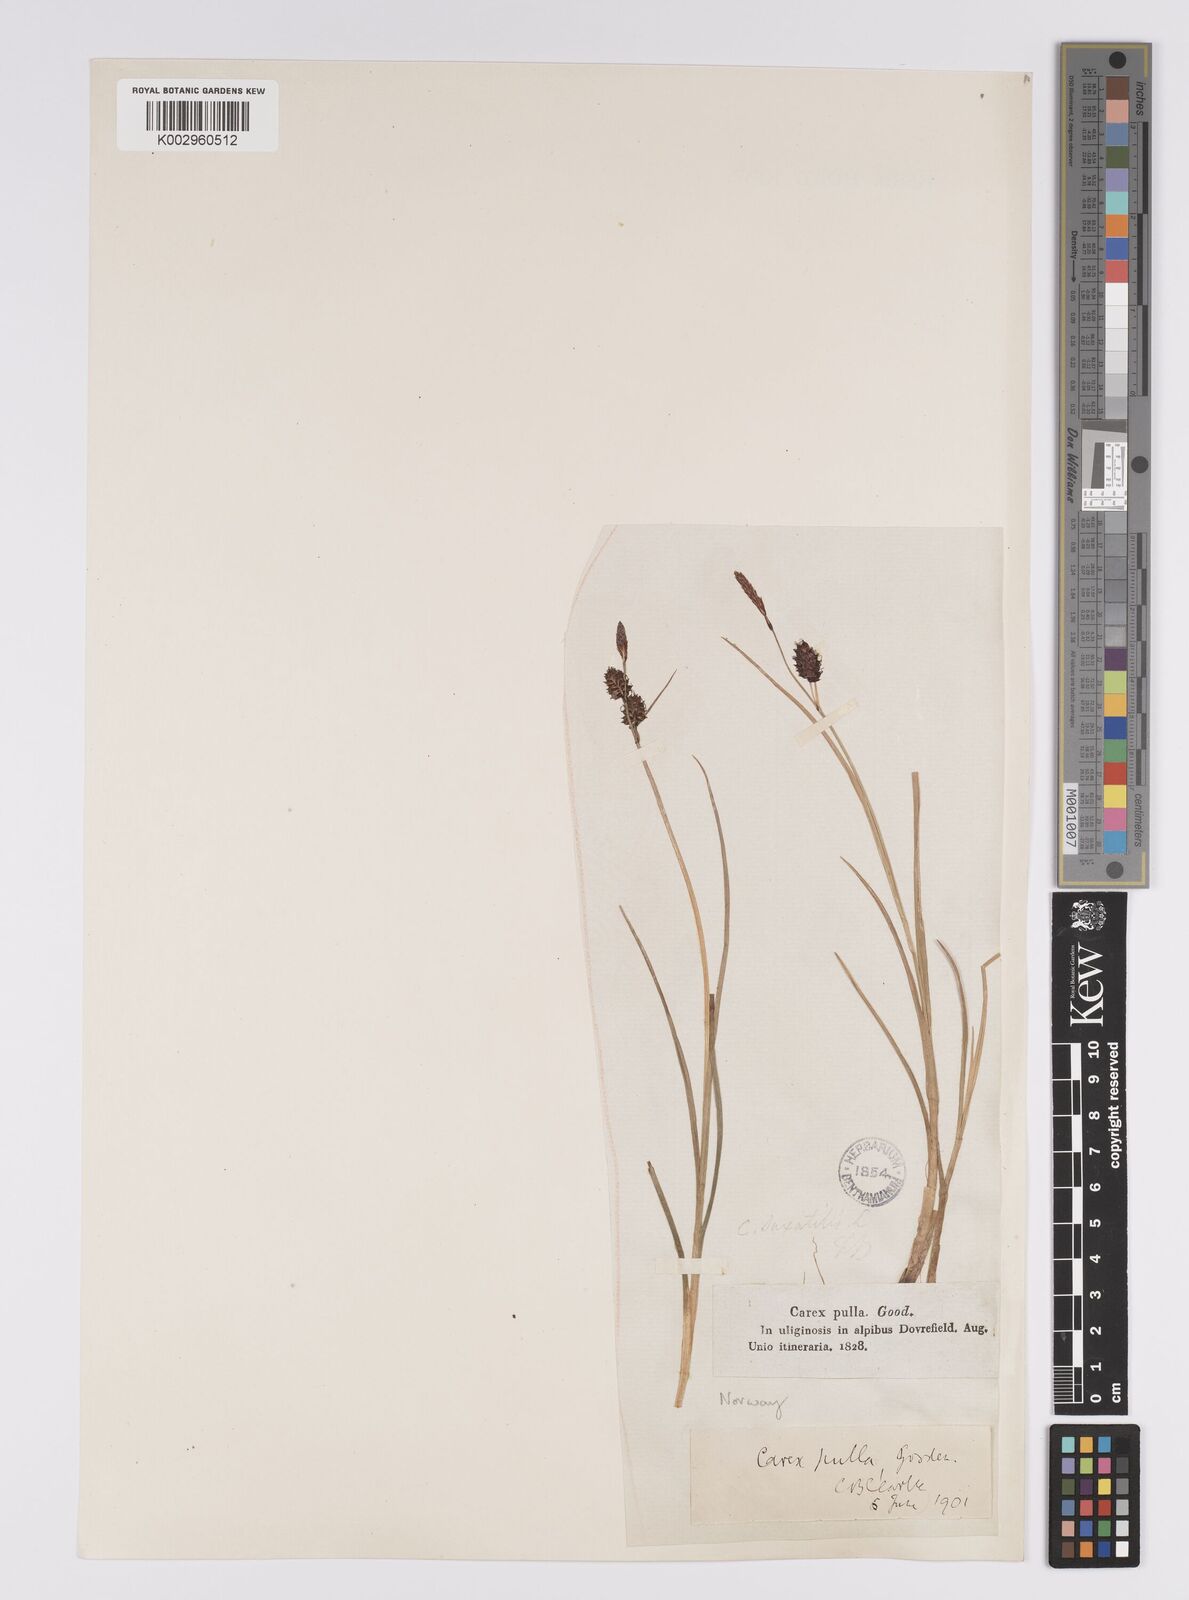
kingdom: Plantae
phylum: Tracheophyta
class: Liliopsida
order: Poales
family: Cyperaceae
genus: Carex
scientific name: Carex saxatilis
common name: Russet sedge
